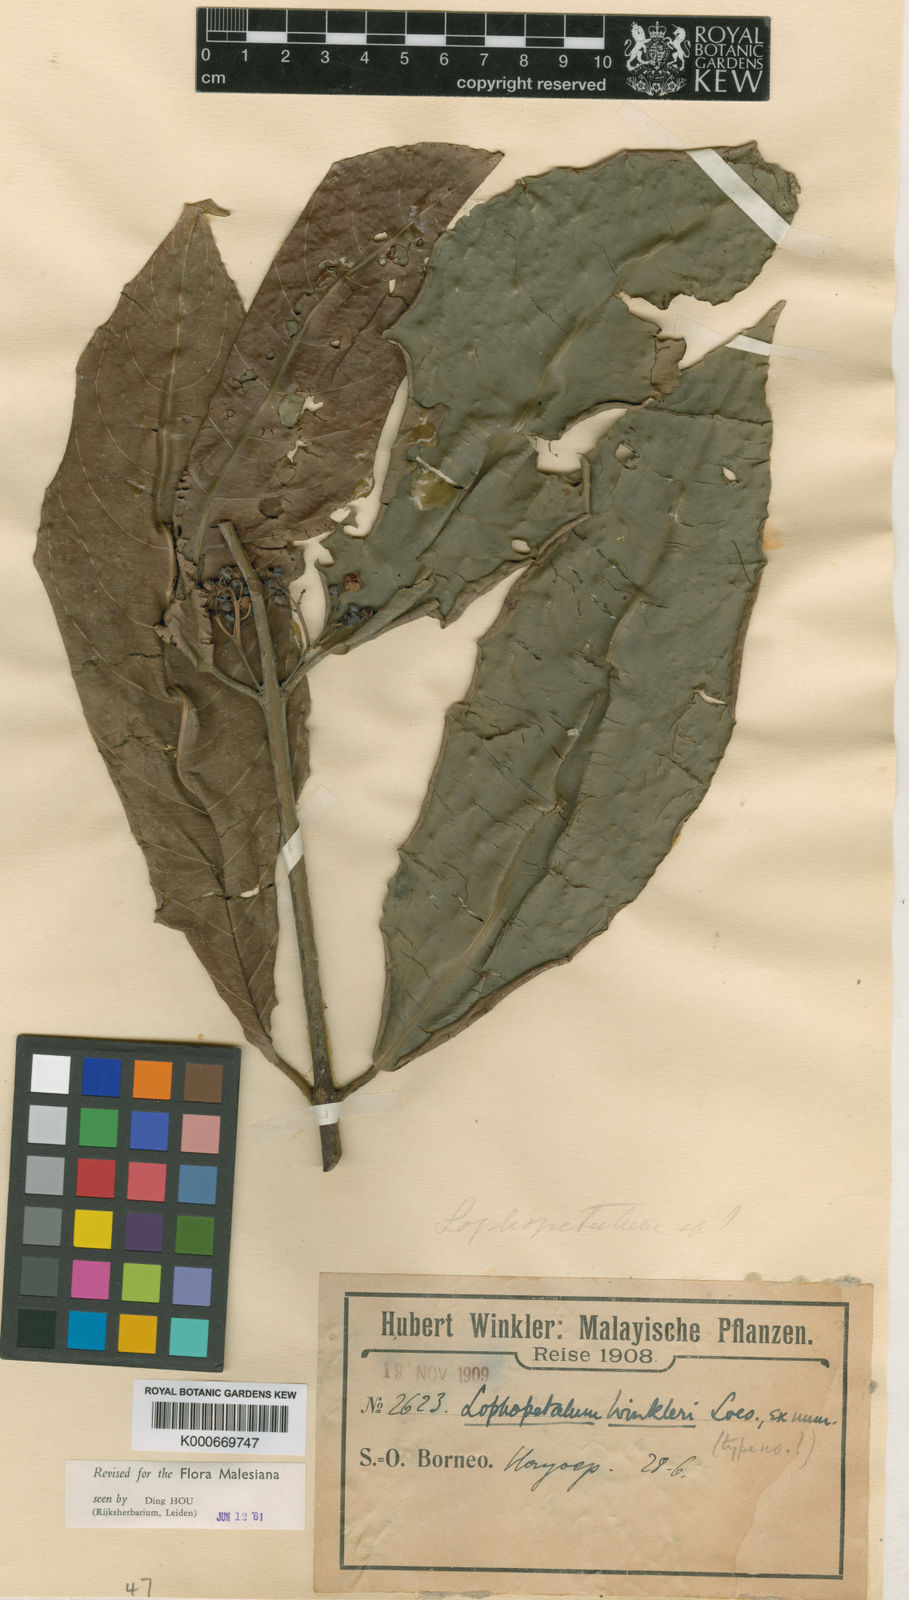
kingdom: Plantae
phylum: Tracheophyta
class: Magnoliopsida
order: Celastrales
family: Celastraceae
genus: Lophopetalum
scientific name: Lophopetalum wightianum
